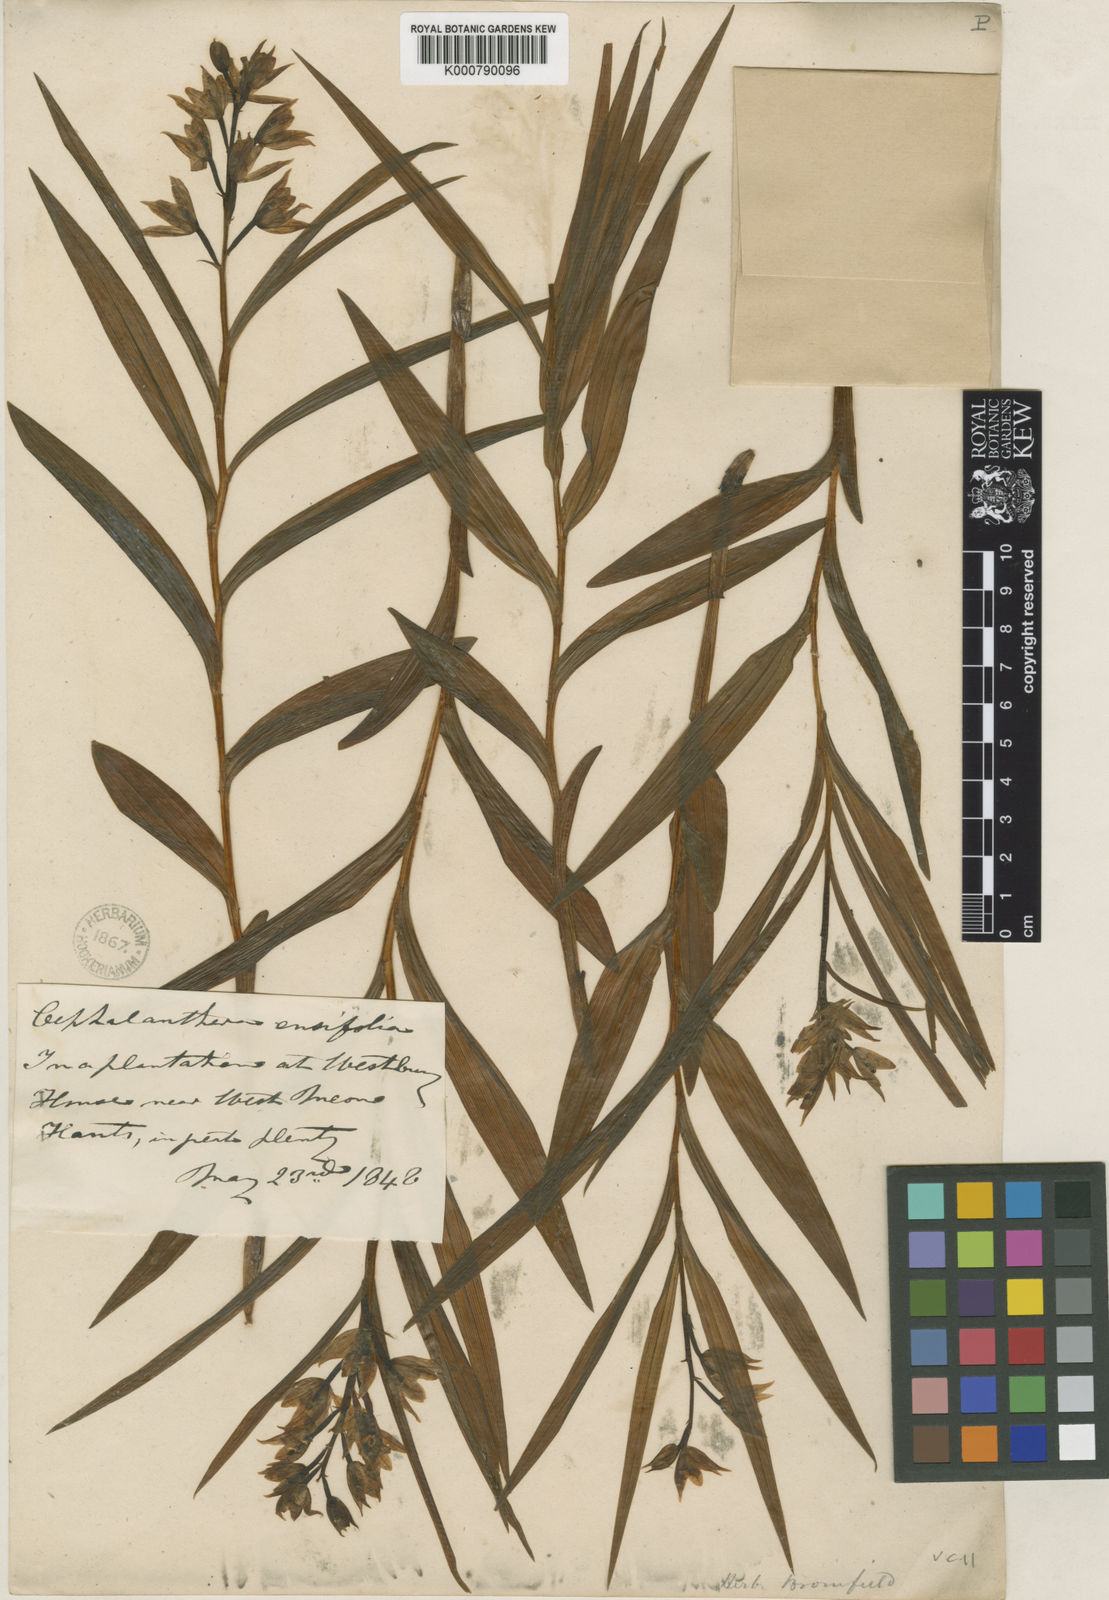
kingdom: Plantae
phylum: Tracheophyta
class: Liliopsida
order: Asparagales
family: Orchidaceae
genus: Cephalanthera
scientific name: Cephalanthera longifolia
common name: Narrow-leaved helleborine
